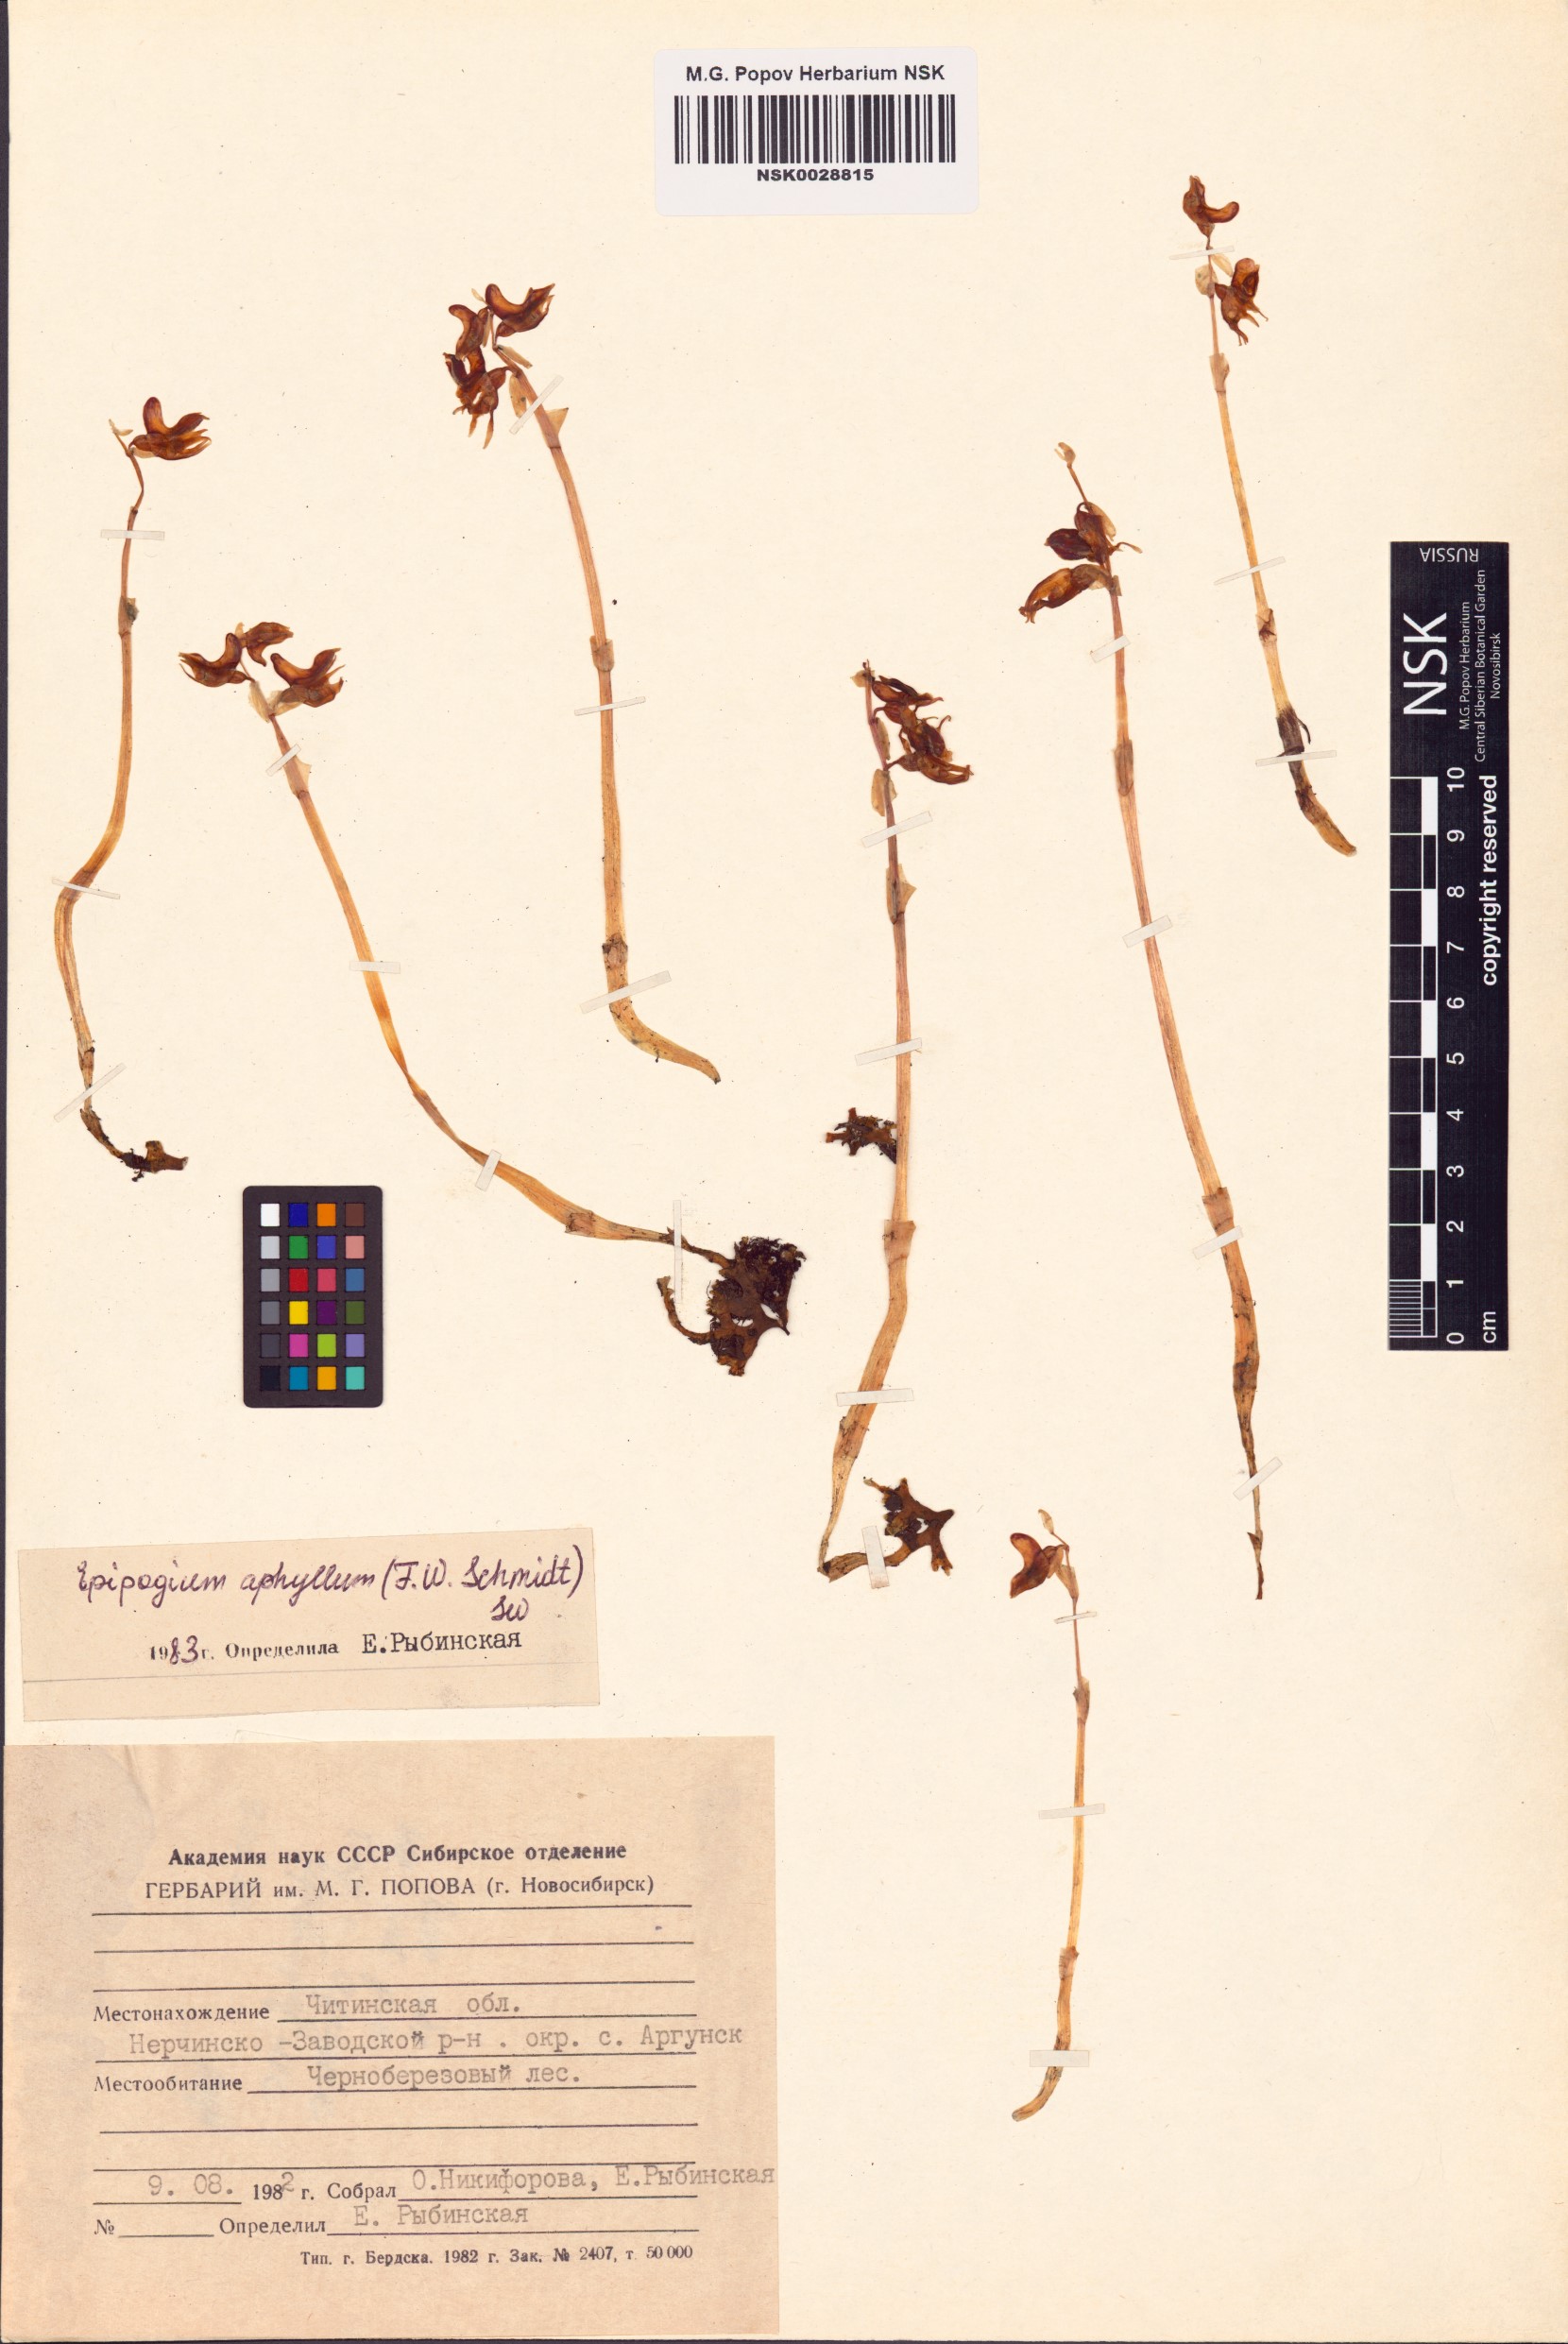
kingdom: Plantae
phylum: Tracheophyta
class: Liliopsida
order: Asparagales
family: Orchidaceae
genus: Epipogium
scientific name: Epipogium aphyllum
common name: Ghost orchid
